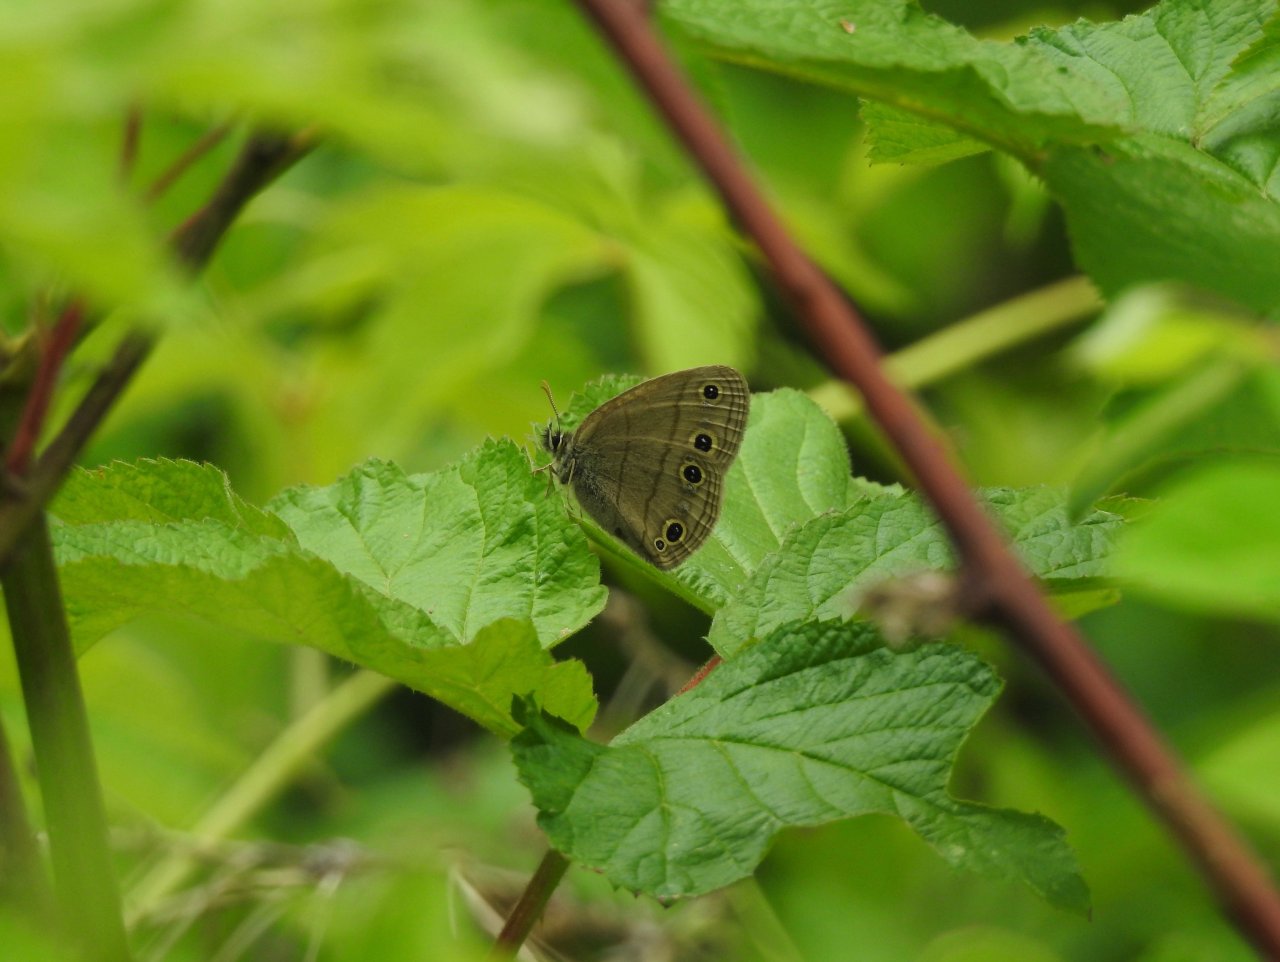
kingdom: Animalia
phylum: Arthropoda
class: Insecta
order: Lepidoptera
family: Nymphalidae
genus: Euptychia
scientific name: Euptychia cymela
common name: Little Wood Satyr
